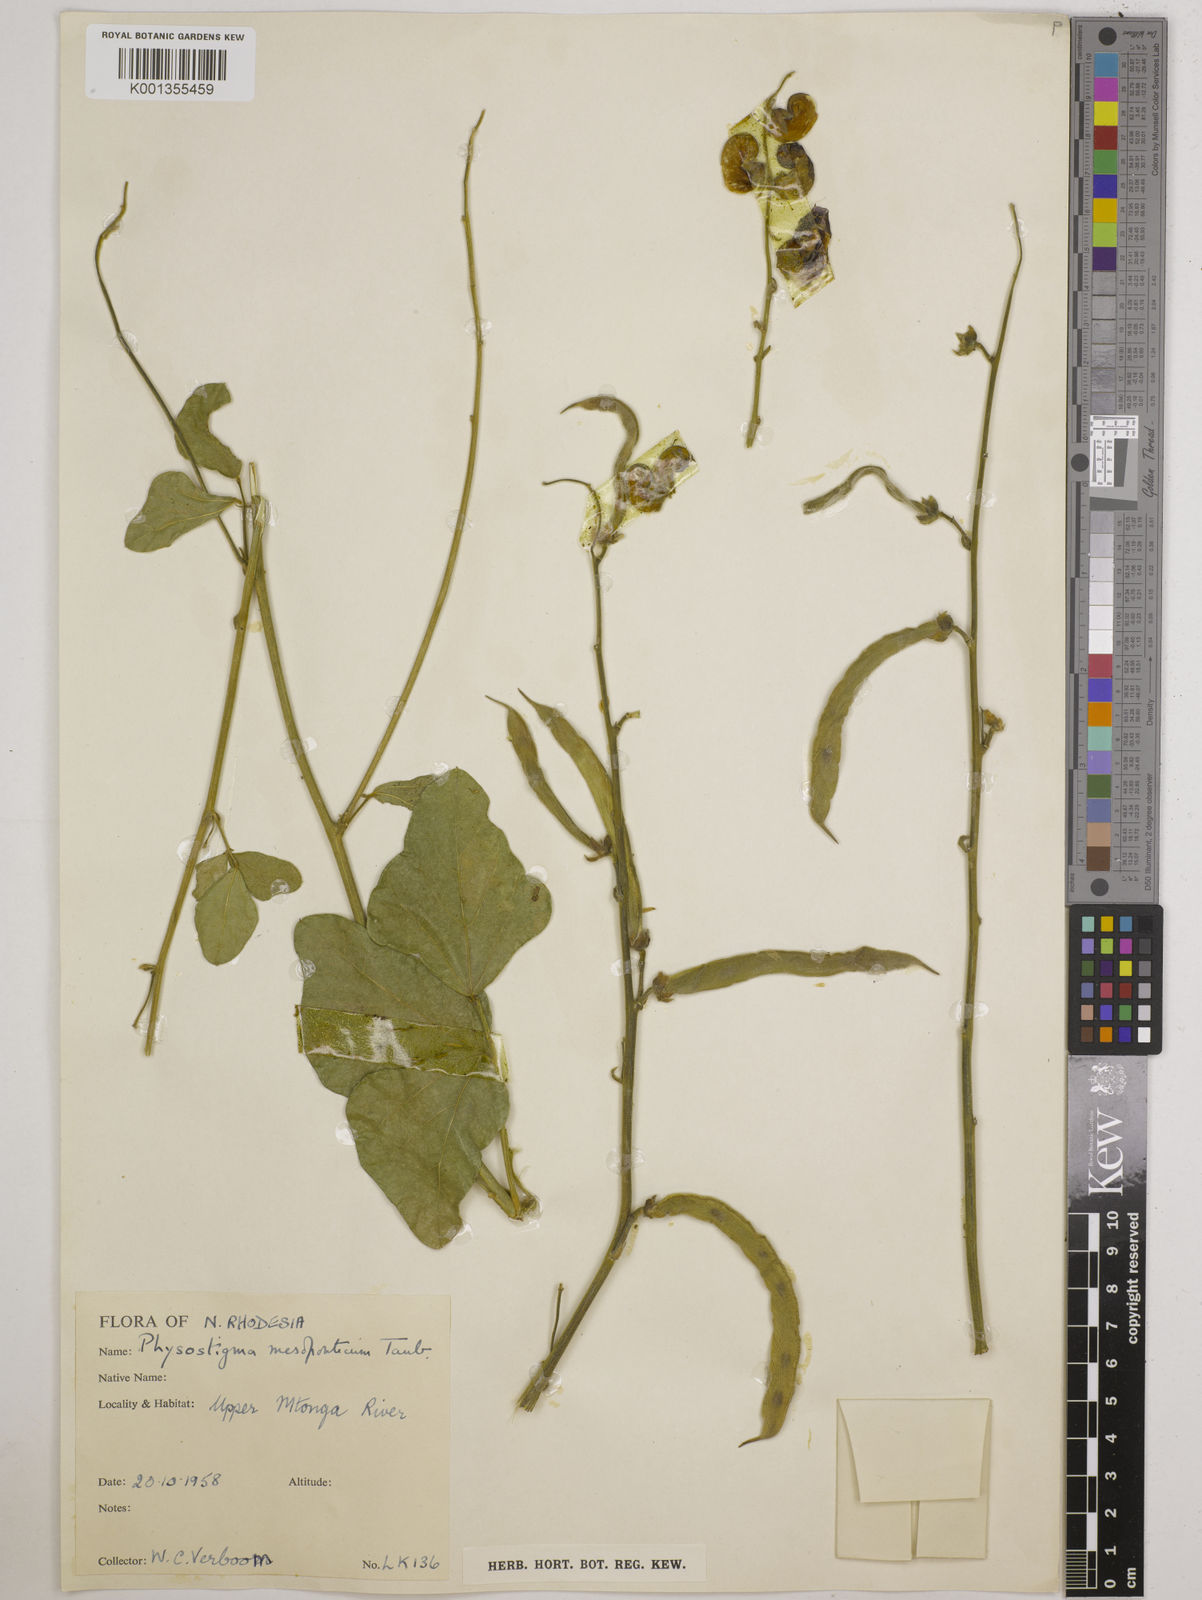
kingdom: Plantae
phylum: Tracheophyta
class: Magnoliopsida
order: Fabales
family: Fabaceae
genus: Physostigma
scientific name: Physostigma mesoponticum
